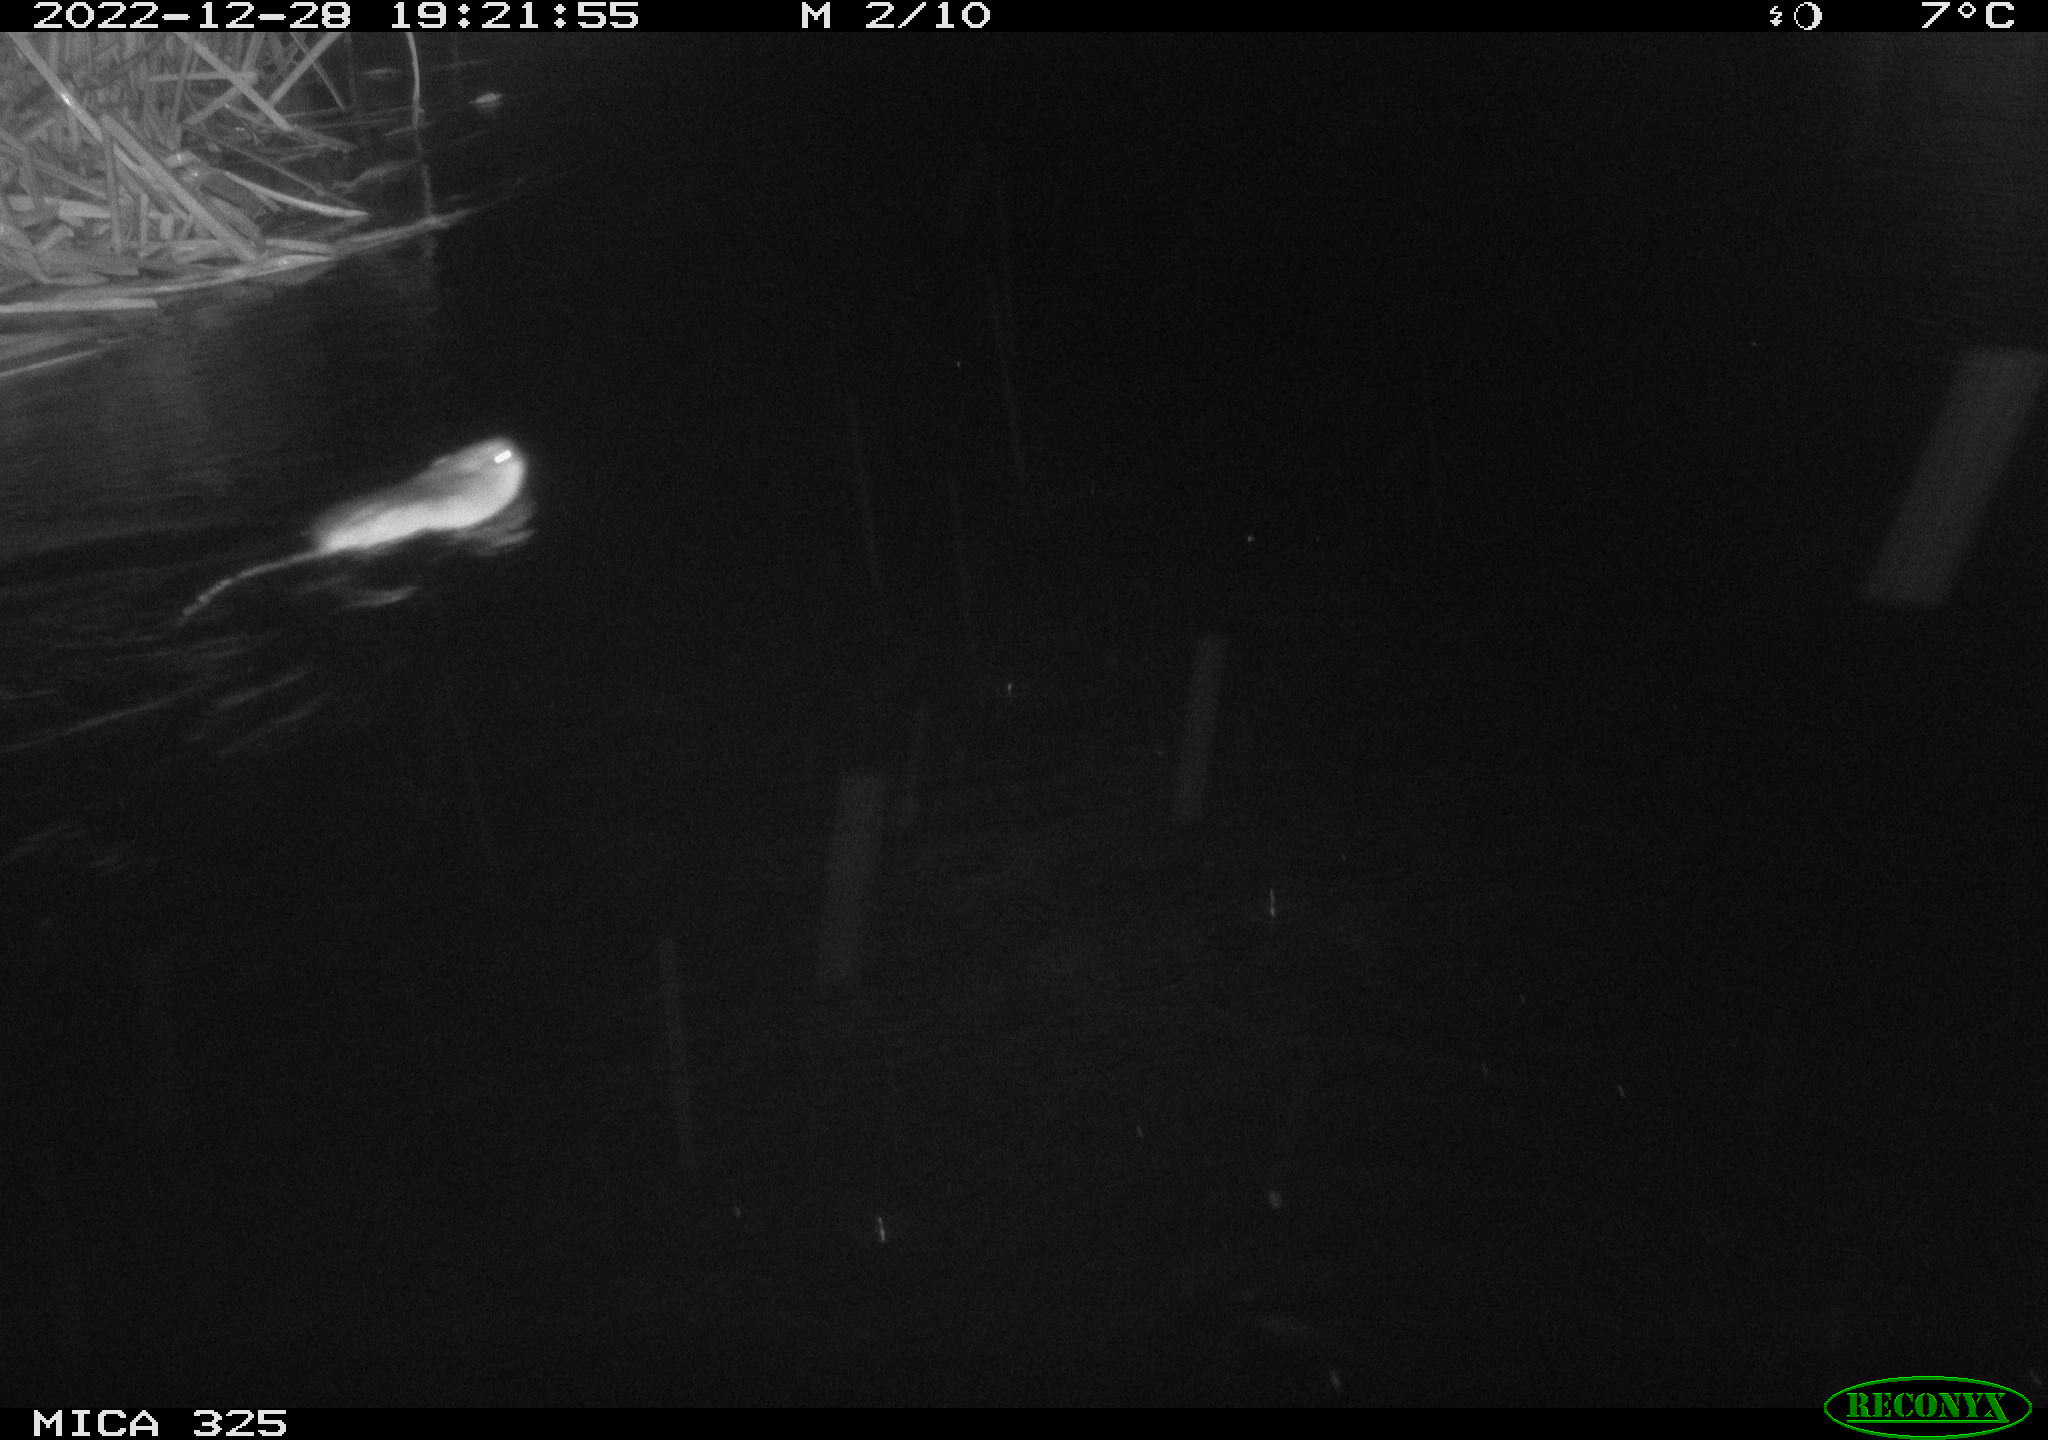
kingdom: Animalia
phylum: Chordata
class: Mammalia
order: Rodentia
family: Cricetidae
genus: Ondatra
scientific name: Ondatra zibethicus
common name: Muskrat
